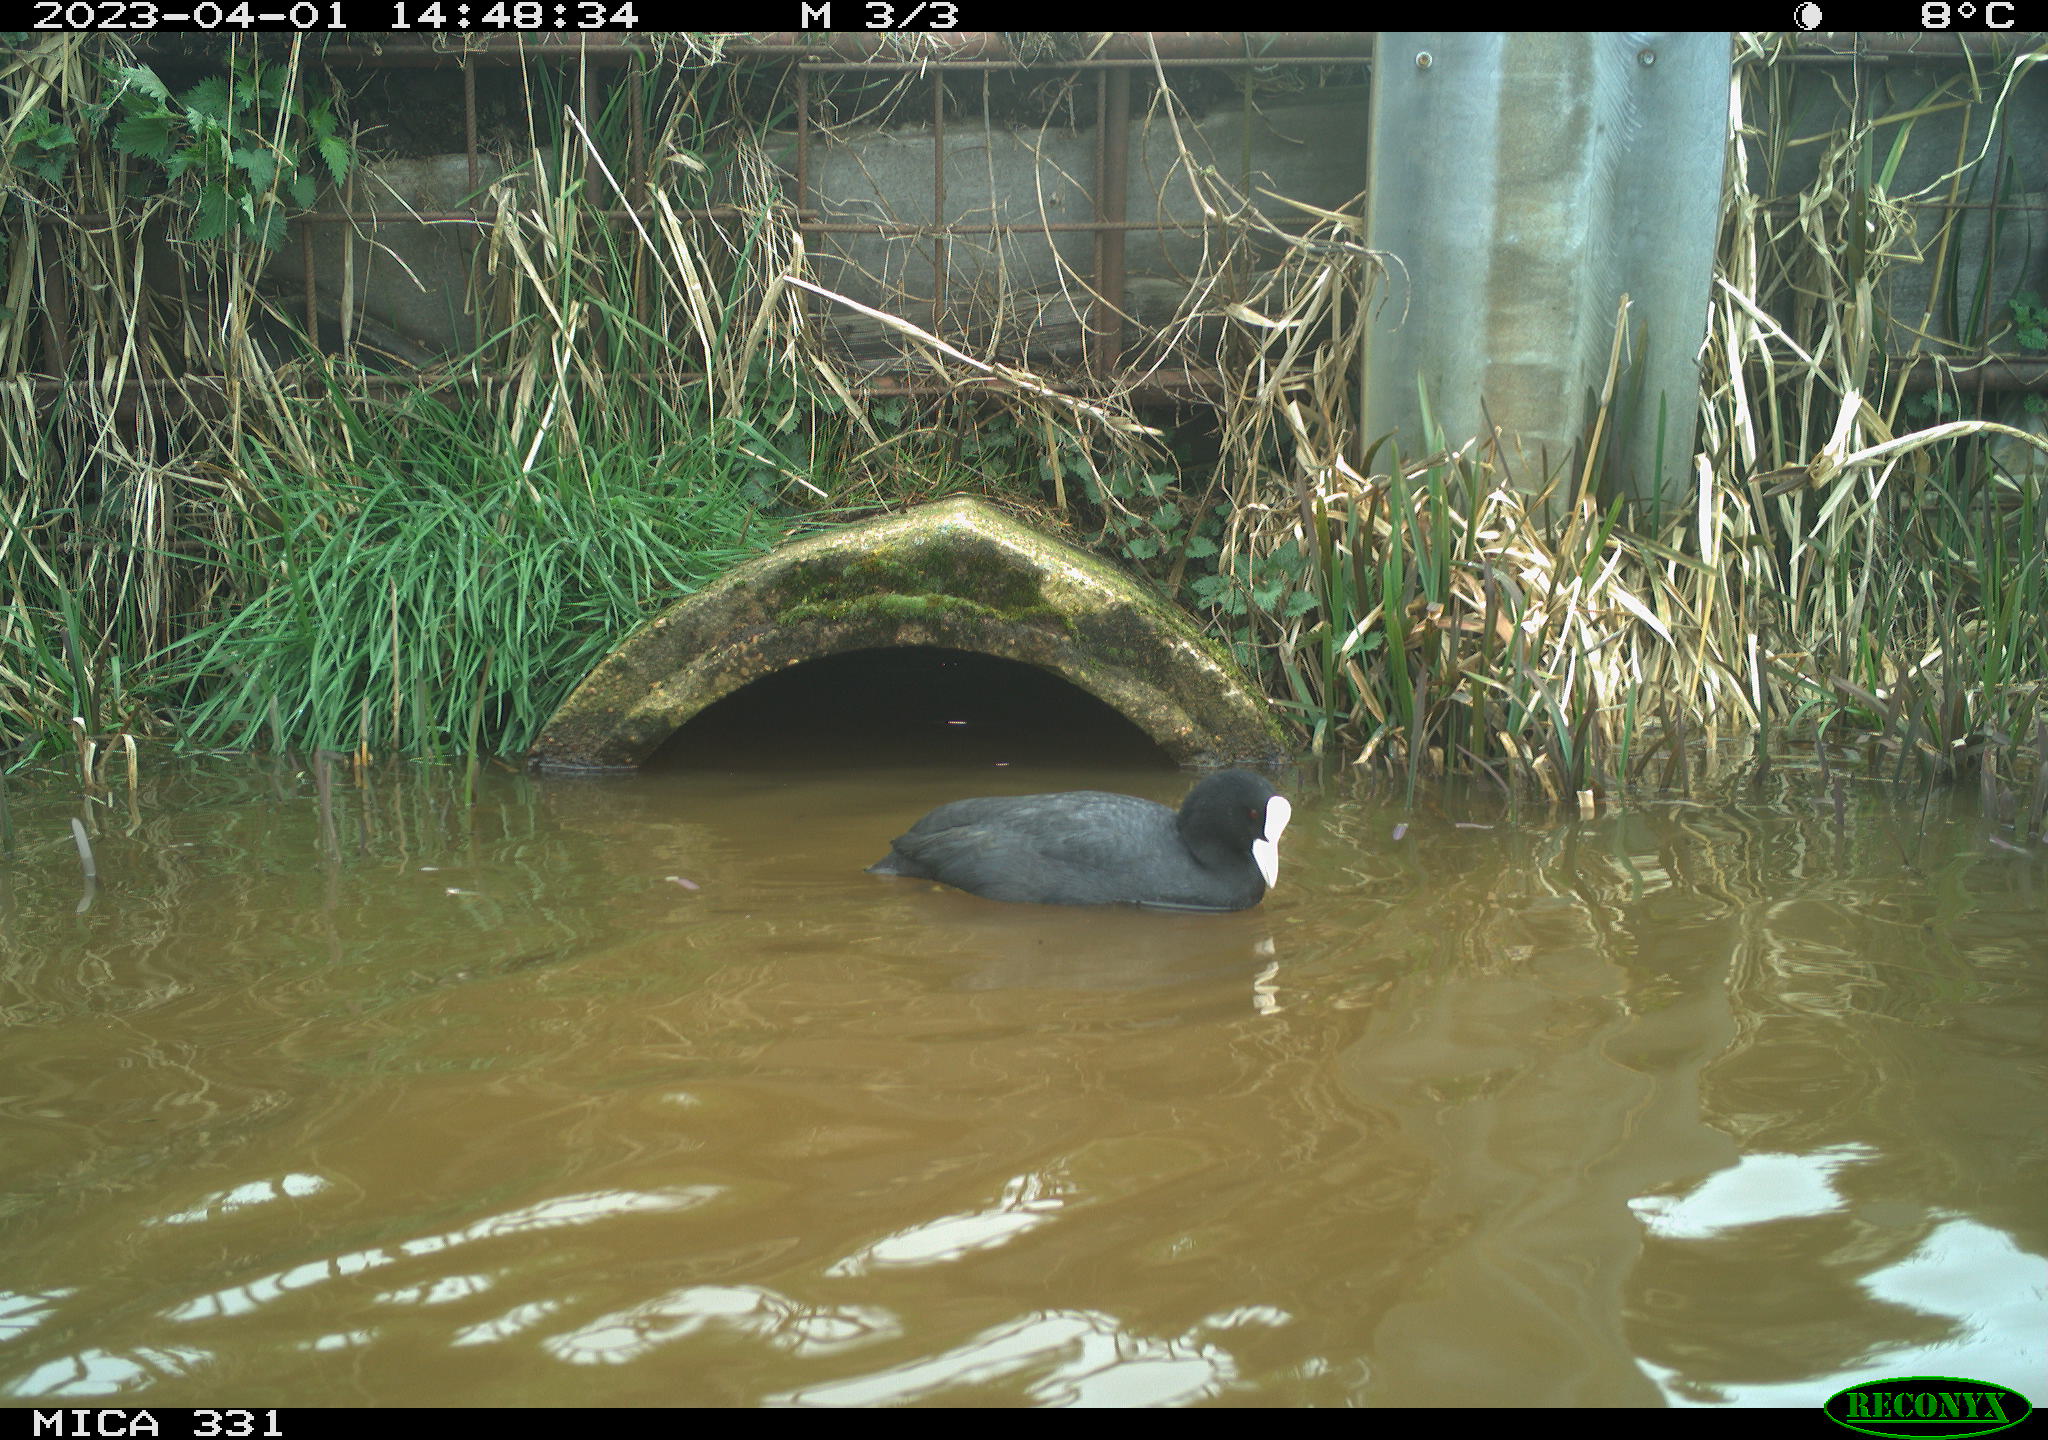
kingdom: Animalia
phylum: Chordata
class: Aves
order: Gruiformes
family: Rallidae
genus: Fulica
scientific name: Fulica atra
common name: Eurasian coot
